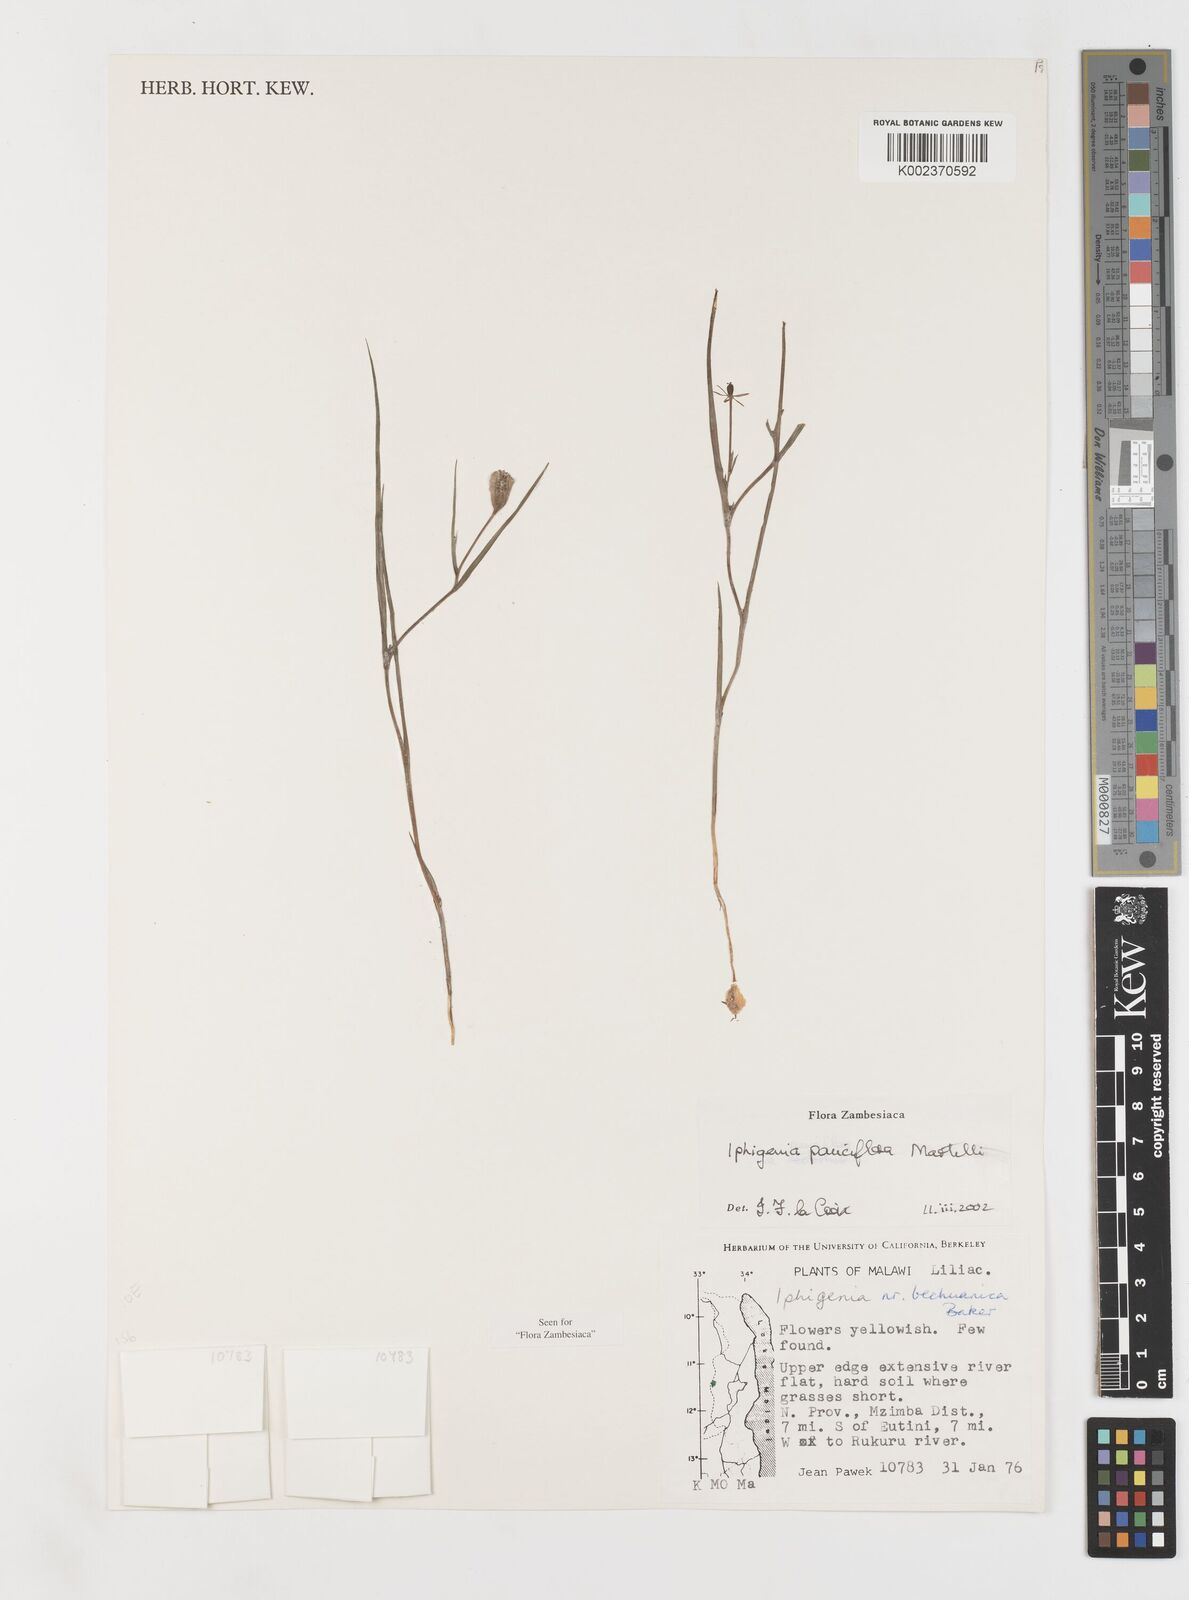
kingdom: Plantae
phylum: Tracheophyta
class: Liliopsida
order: Liliales
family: Colchicaceae
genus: Iphigenia
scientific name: Iphigenia oliveri
